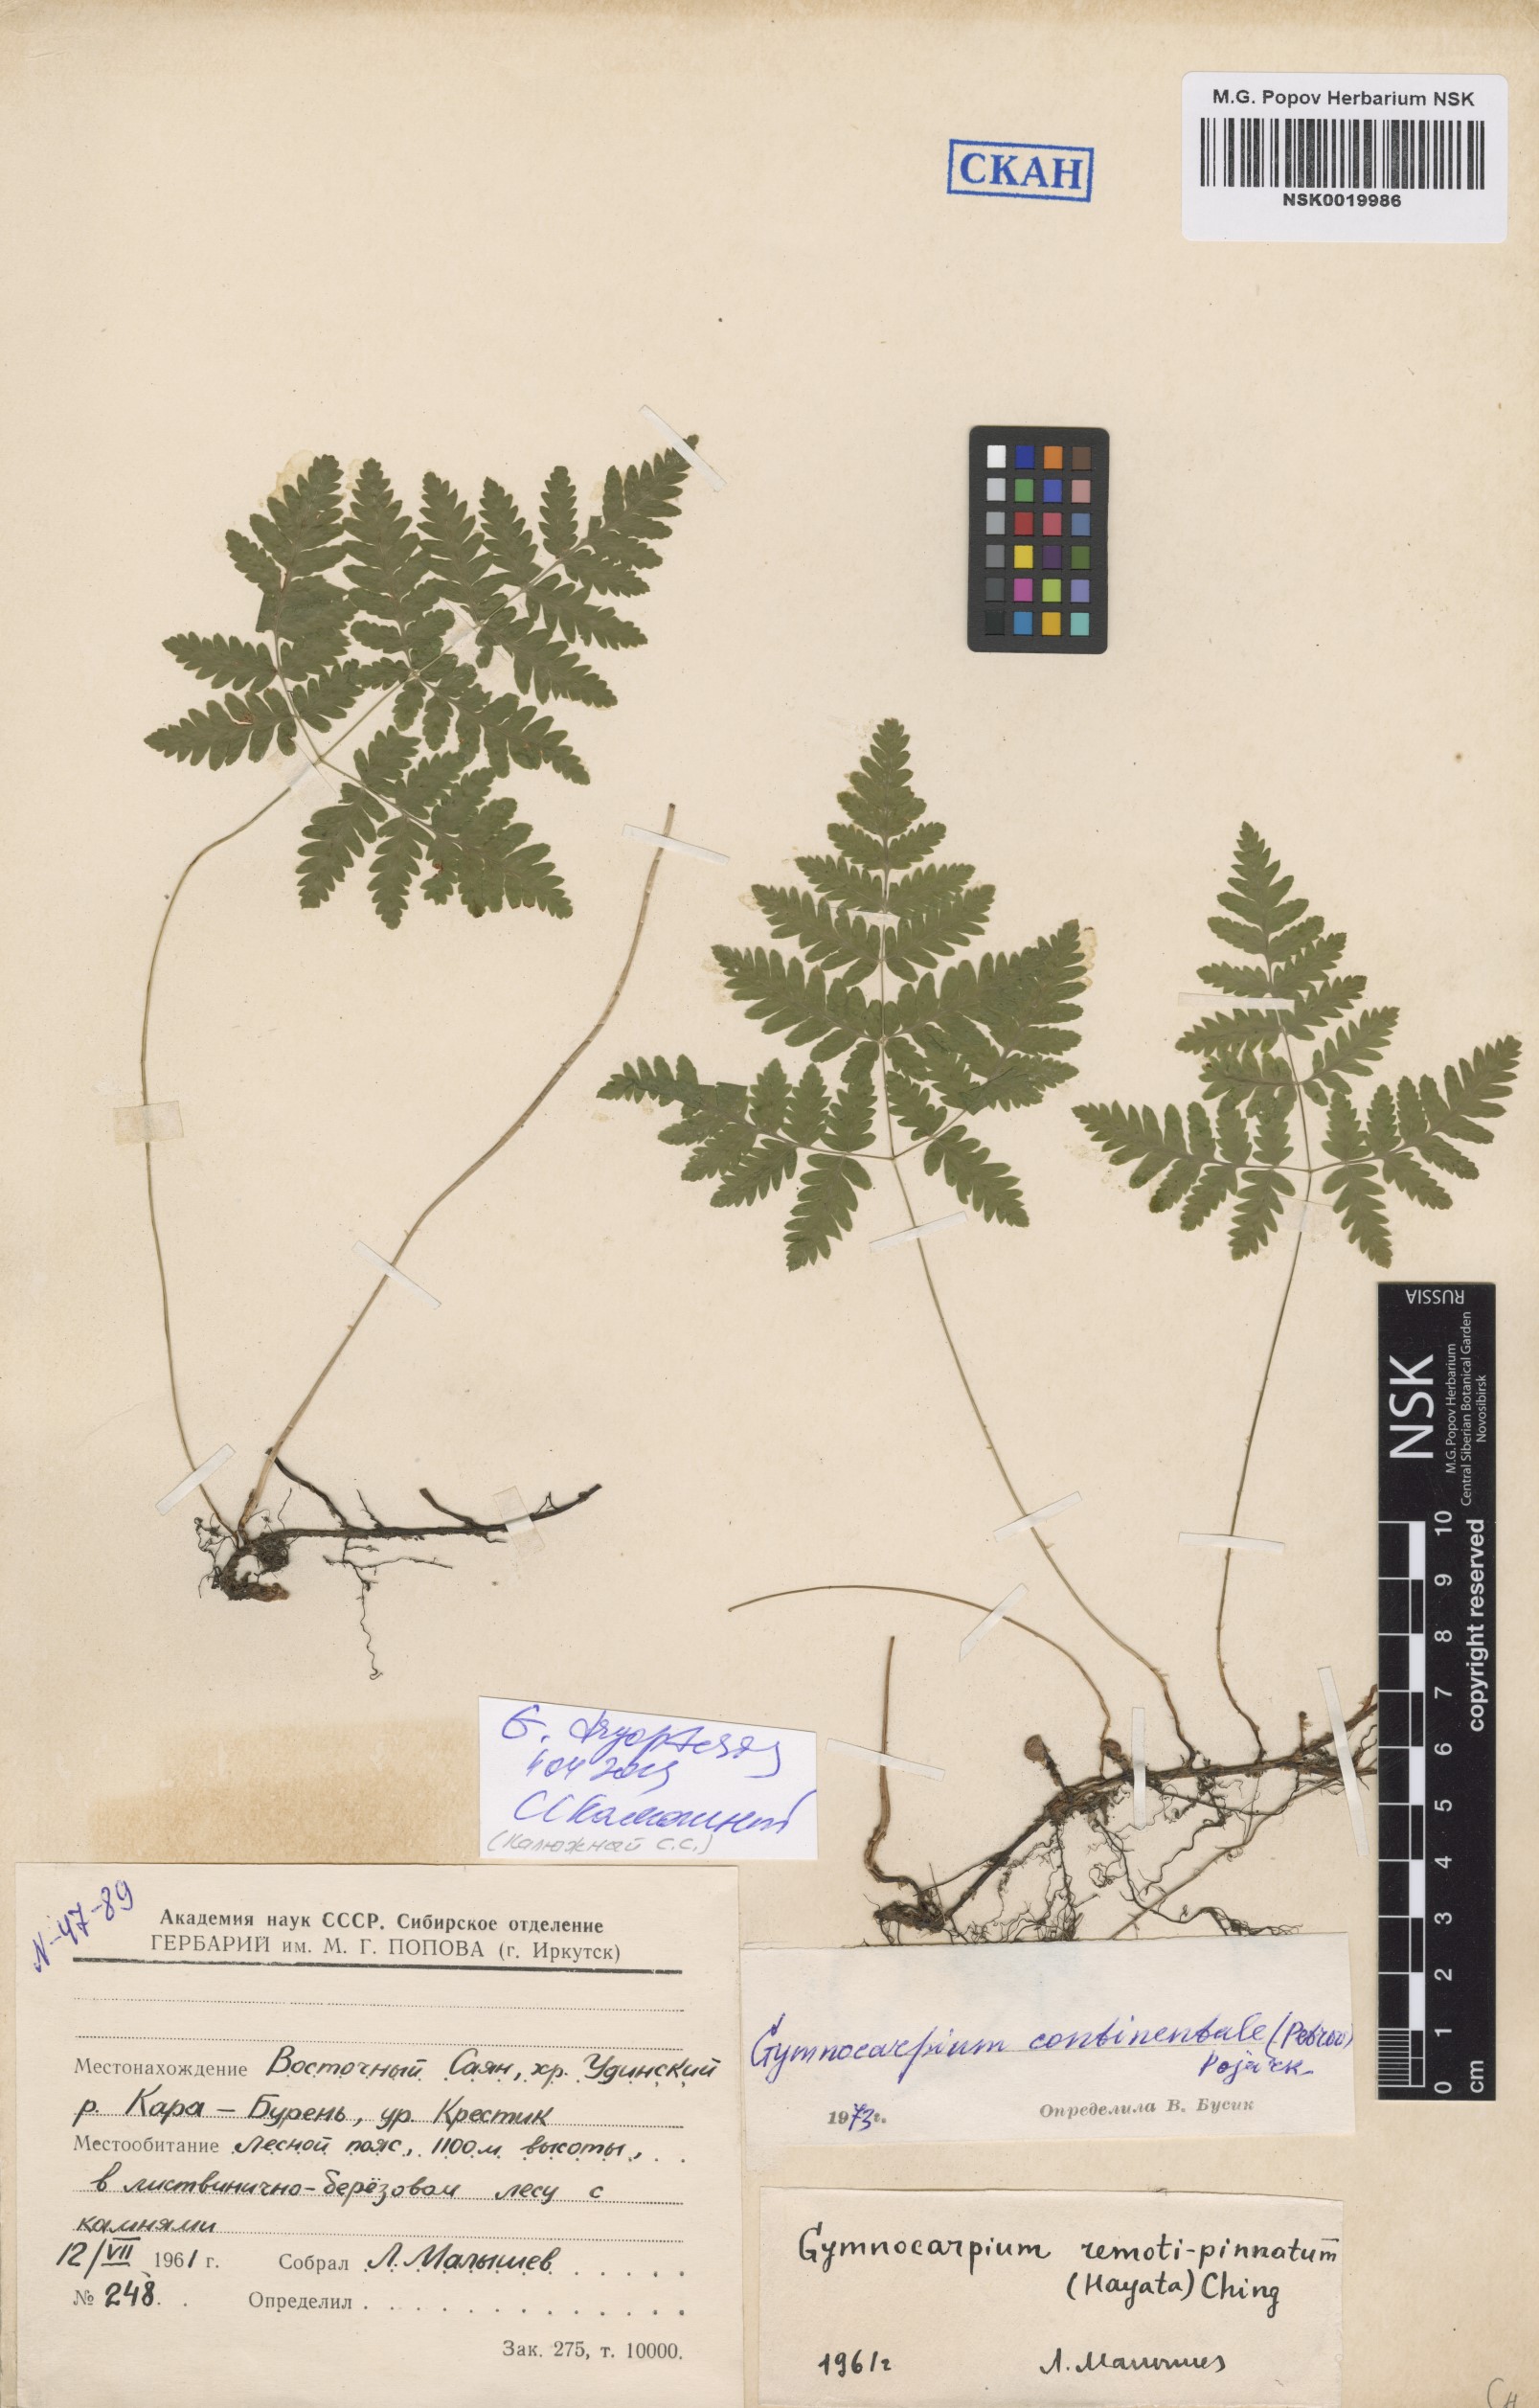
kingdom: Plantae
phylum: Tracheophyta
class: Polypodiopsida
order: Polypodiales
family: Cystopteridaceae
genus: Gymnocarpium
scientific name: Gymnocarpium dryopteris
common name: Oak fern
